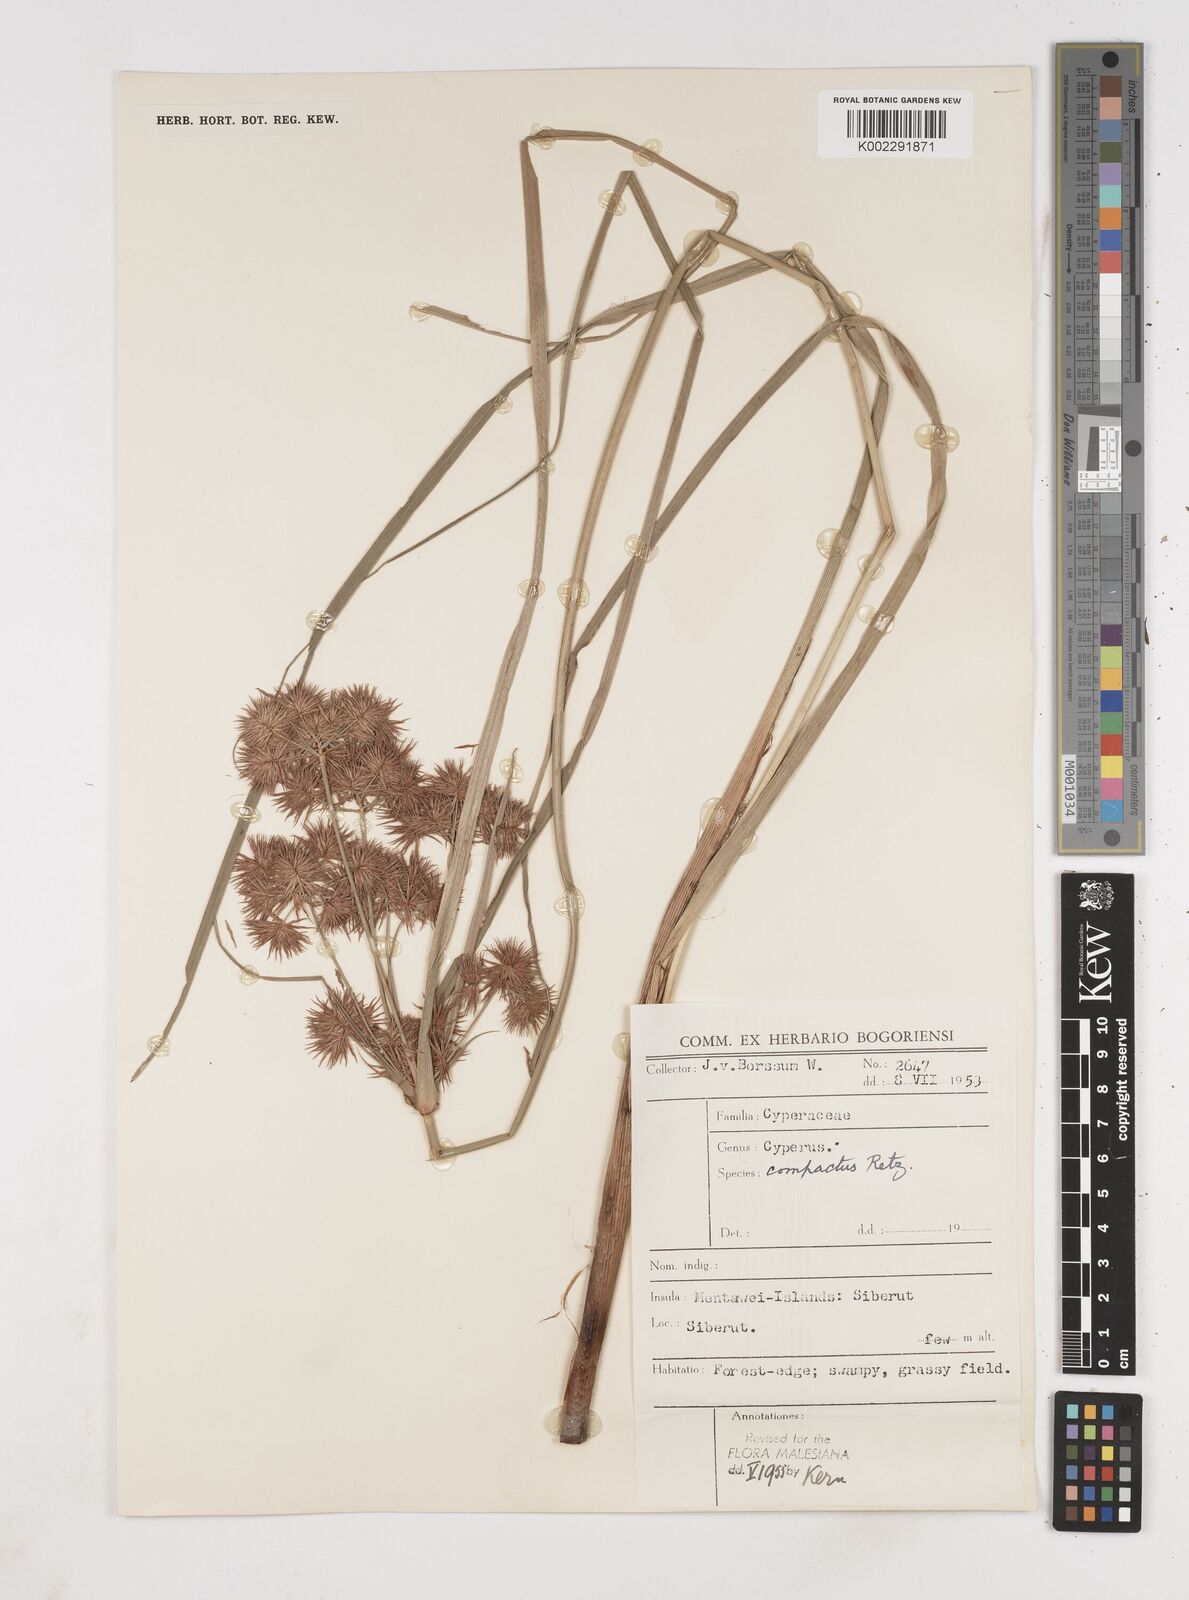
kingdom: Plantae
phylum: Tracheophyta
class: Liliopsida
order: Poales
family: Cyperaceae
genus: Cyperus
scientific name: Cyperus
